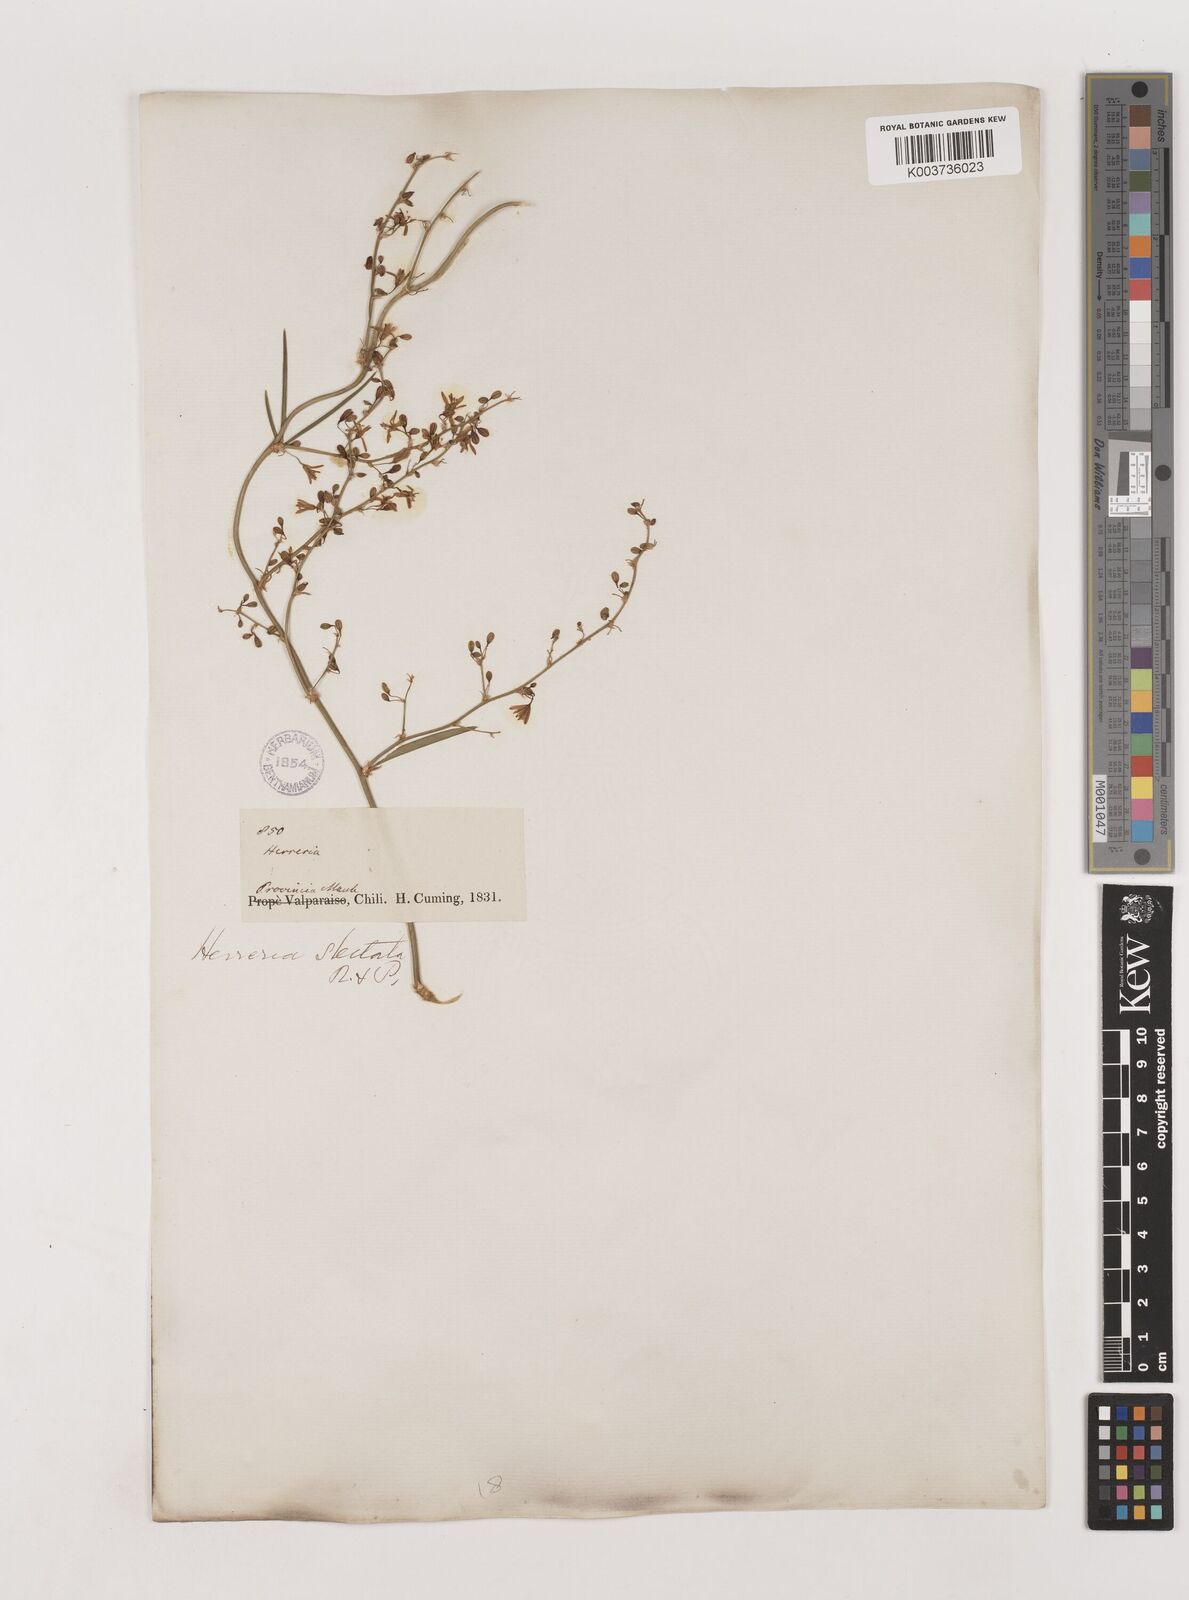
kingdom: Plantae
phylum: Tracheophyta
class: Liliopsida
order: Asparagales
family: Asparagaceae
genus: Herreria
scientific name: Herreria stellata
